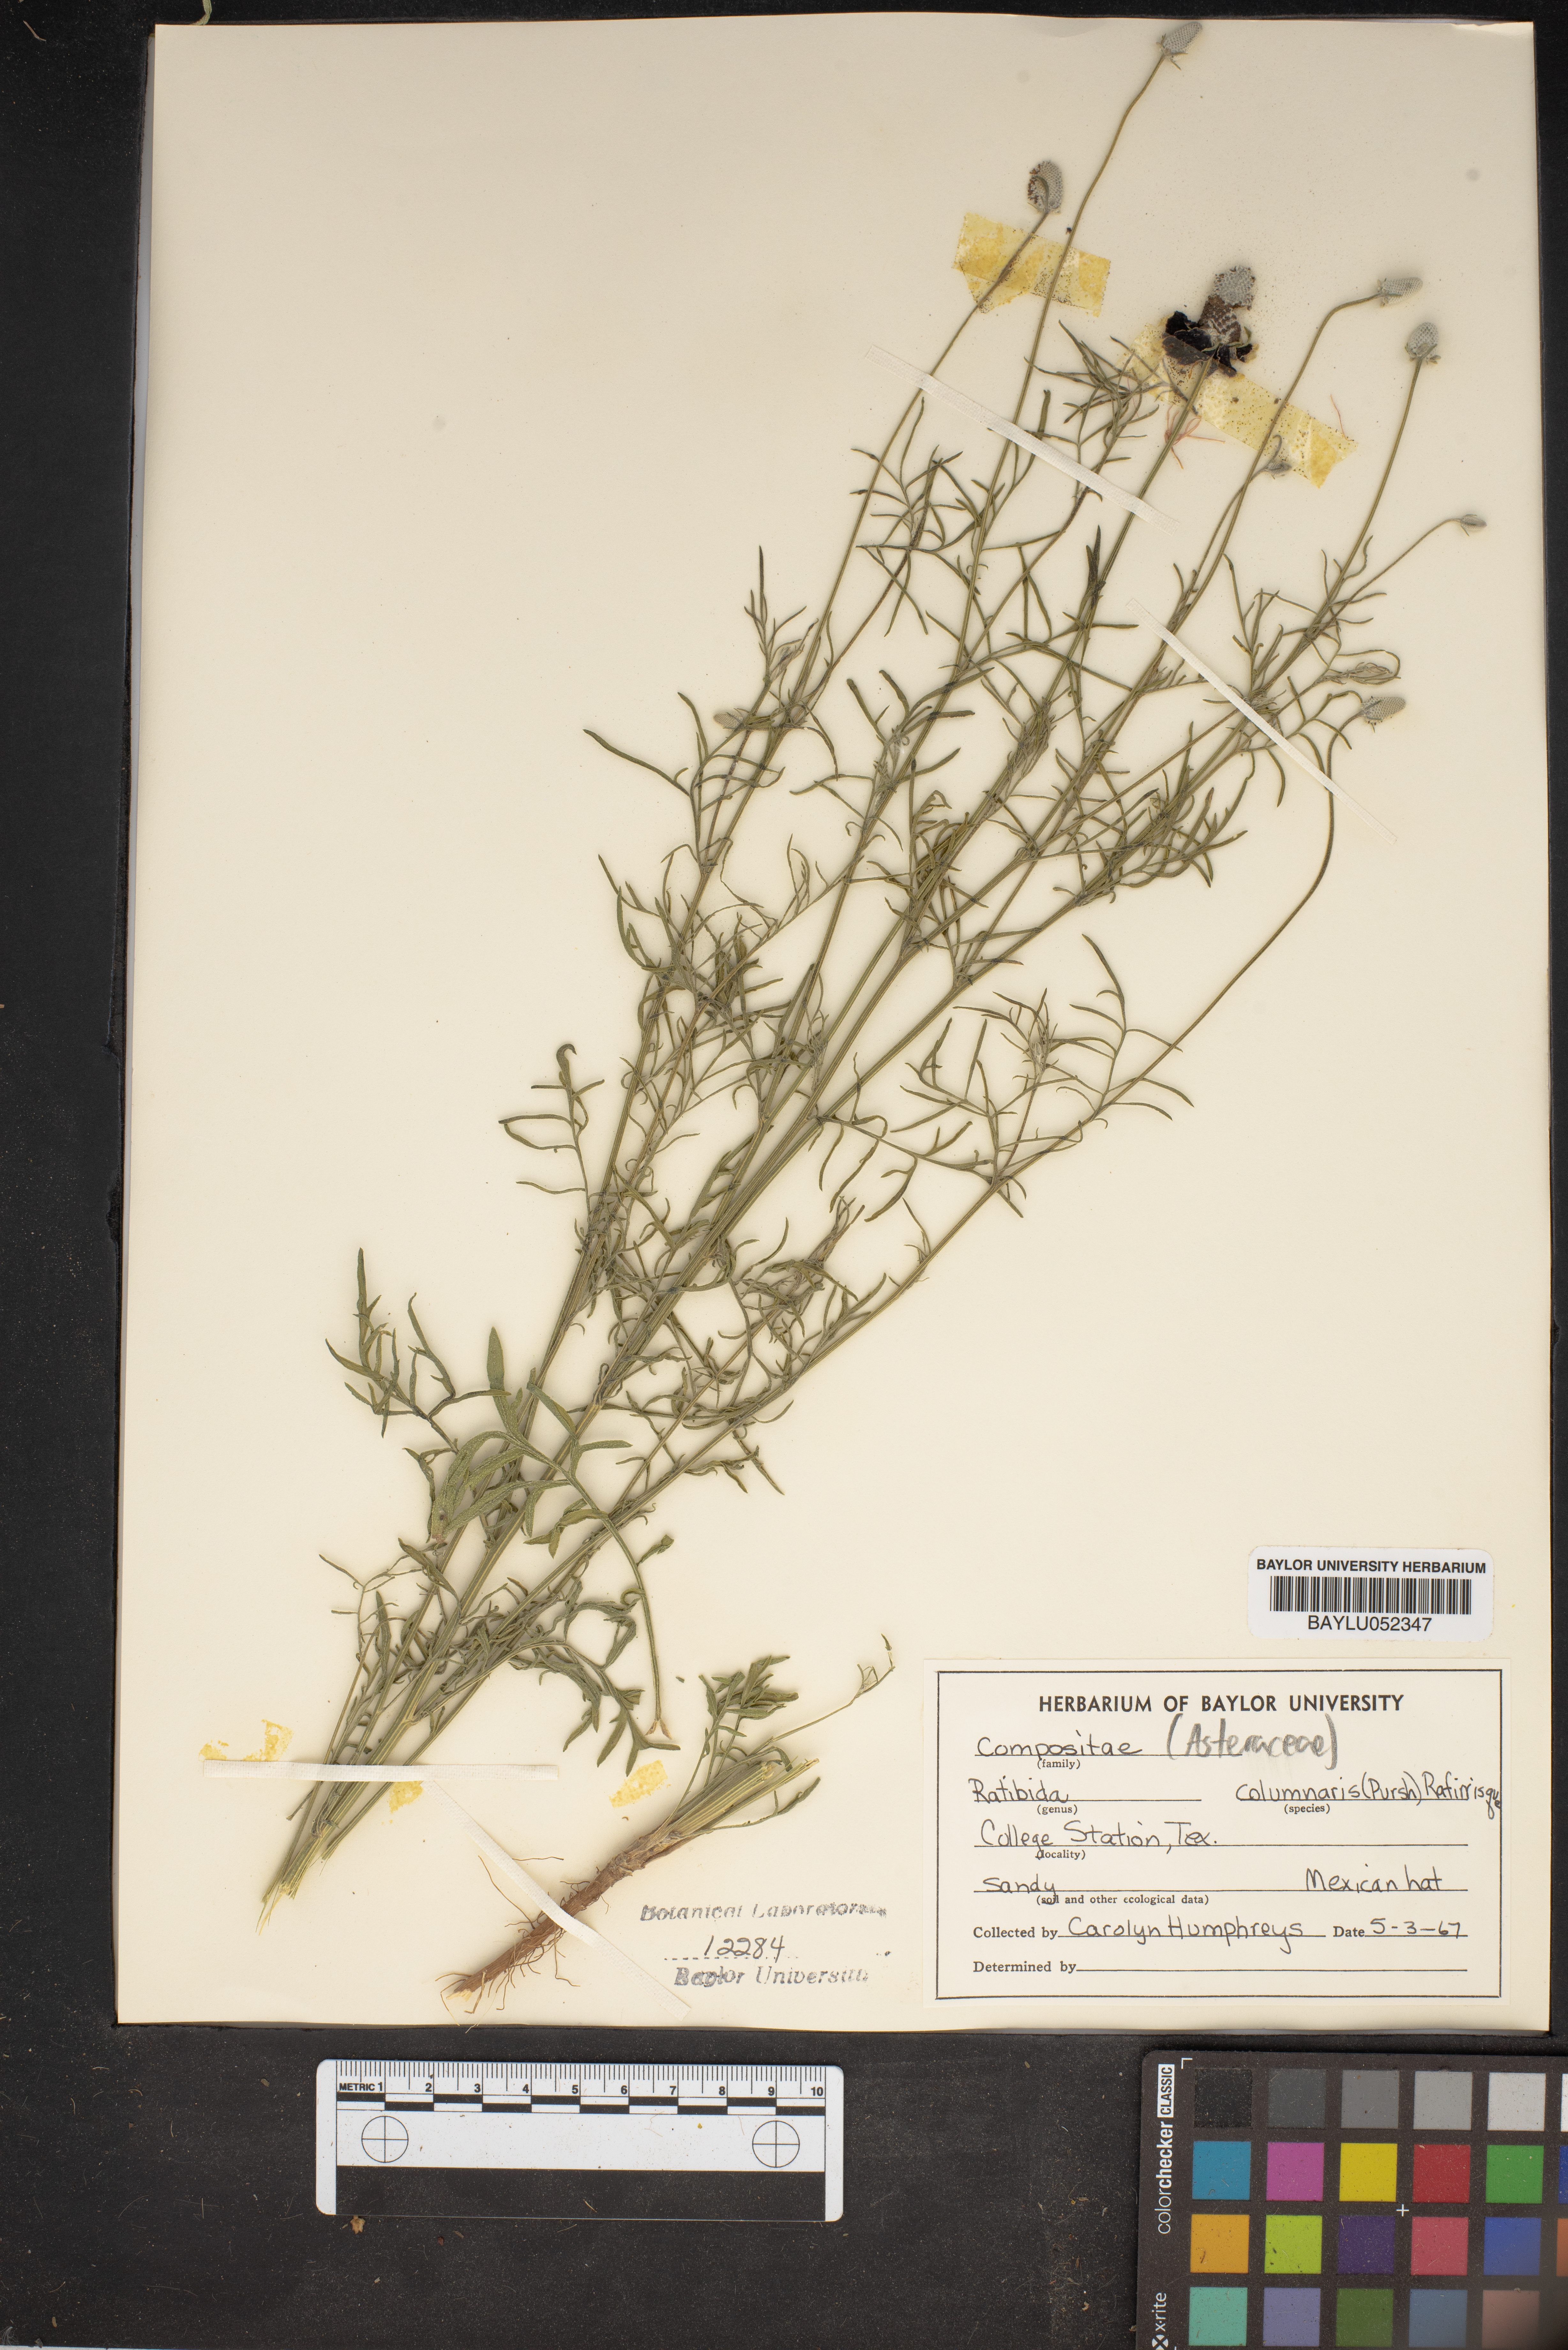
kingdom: Plantae
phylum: Tracheophyta
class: Magnoliopsida
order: Asterales
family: Asteraceae
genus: Ratibida
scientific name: Ratibida columnifera
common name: Prairie coneflower
